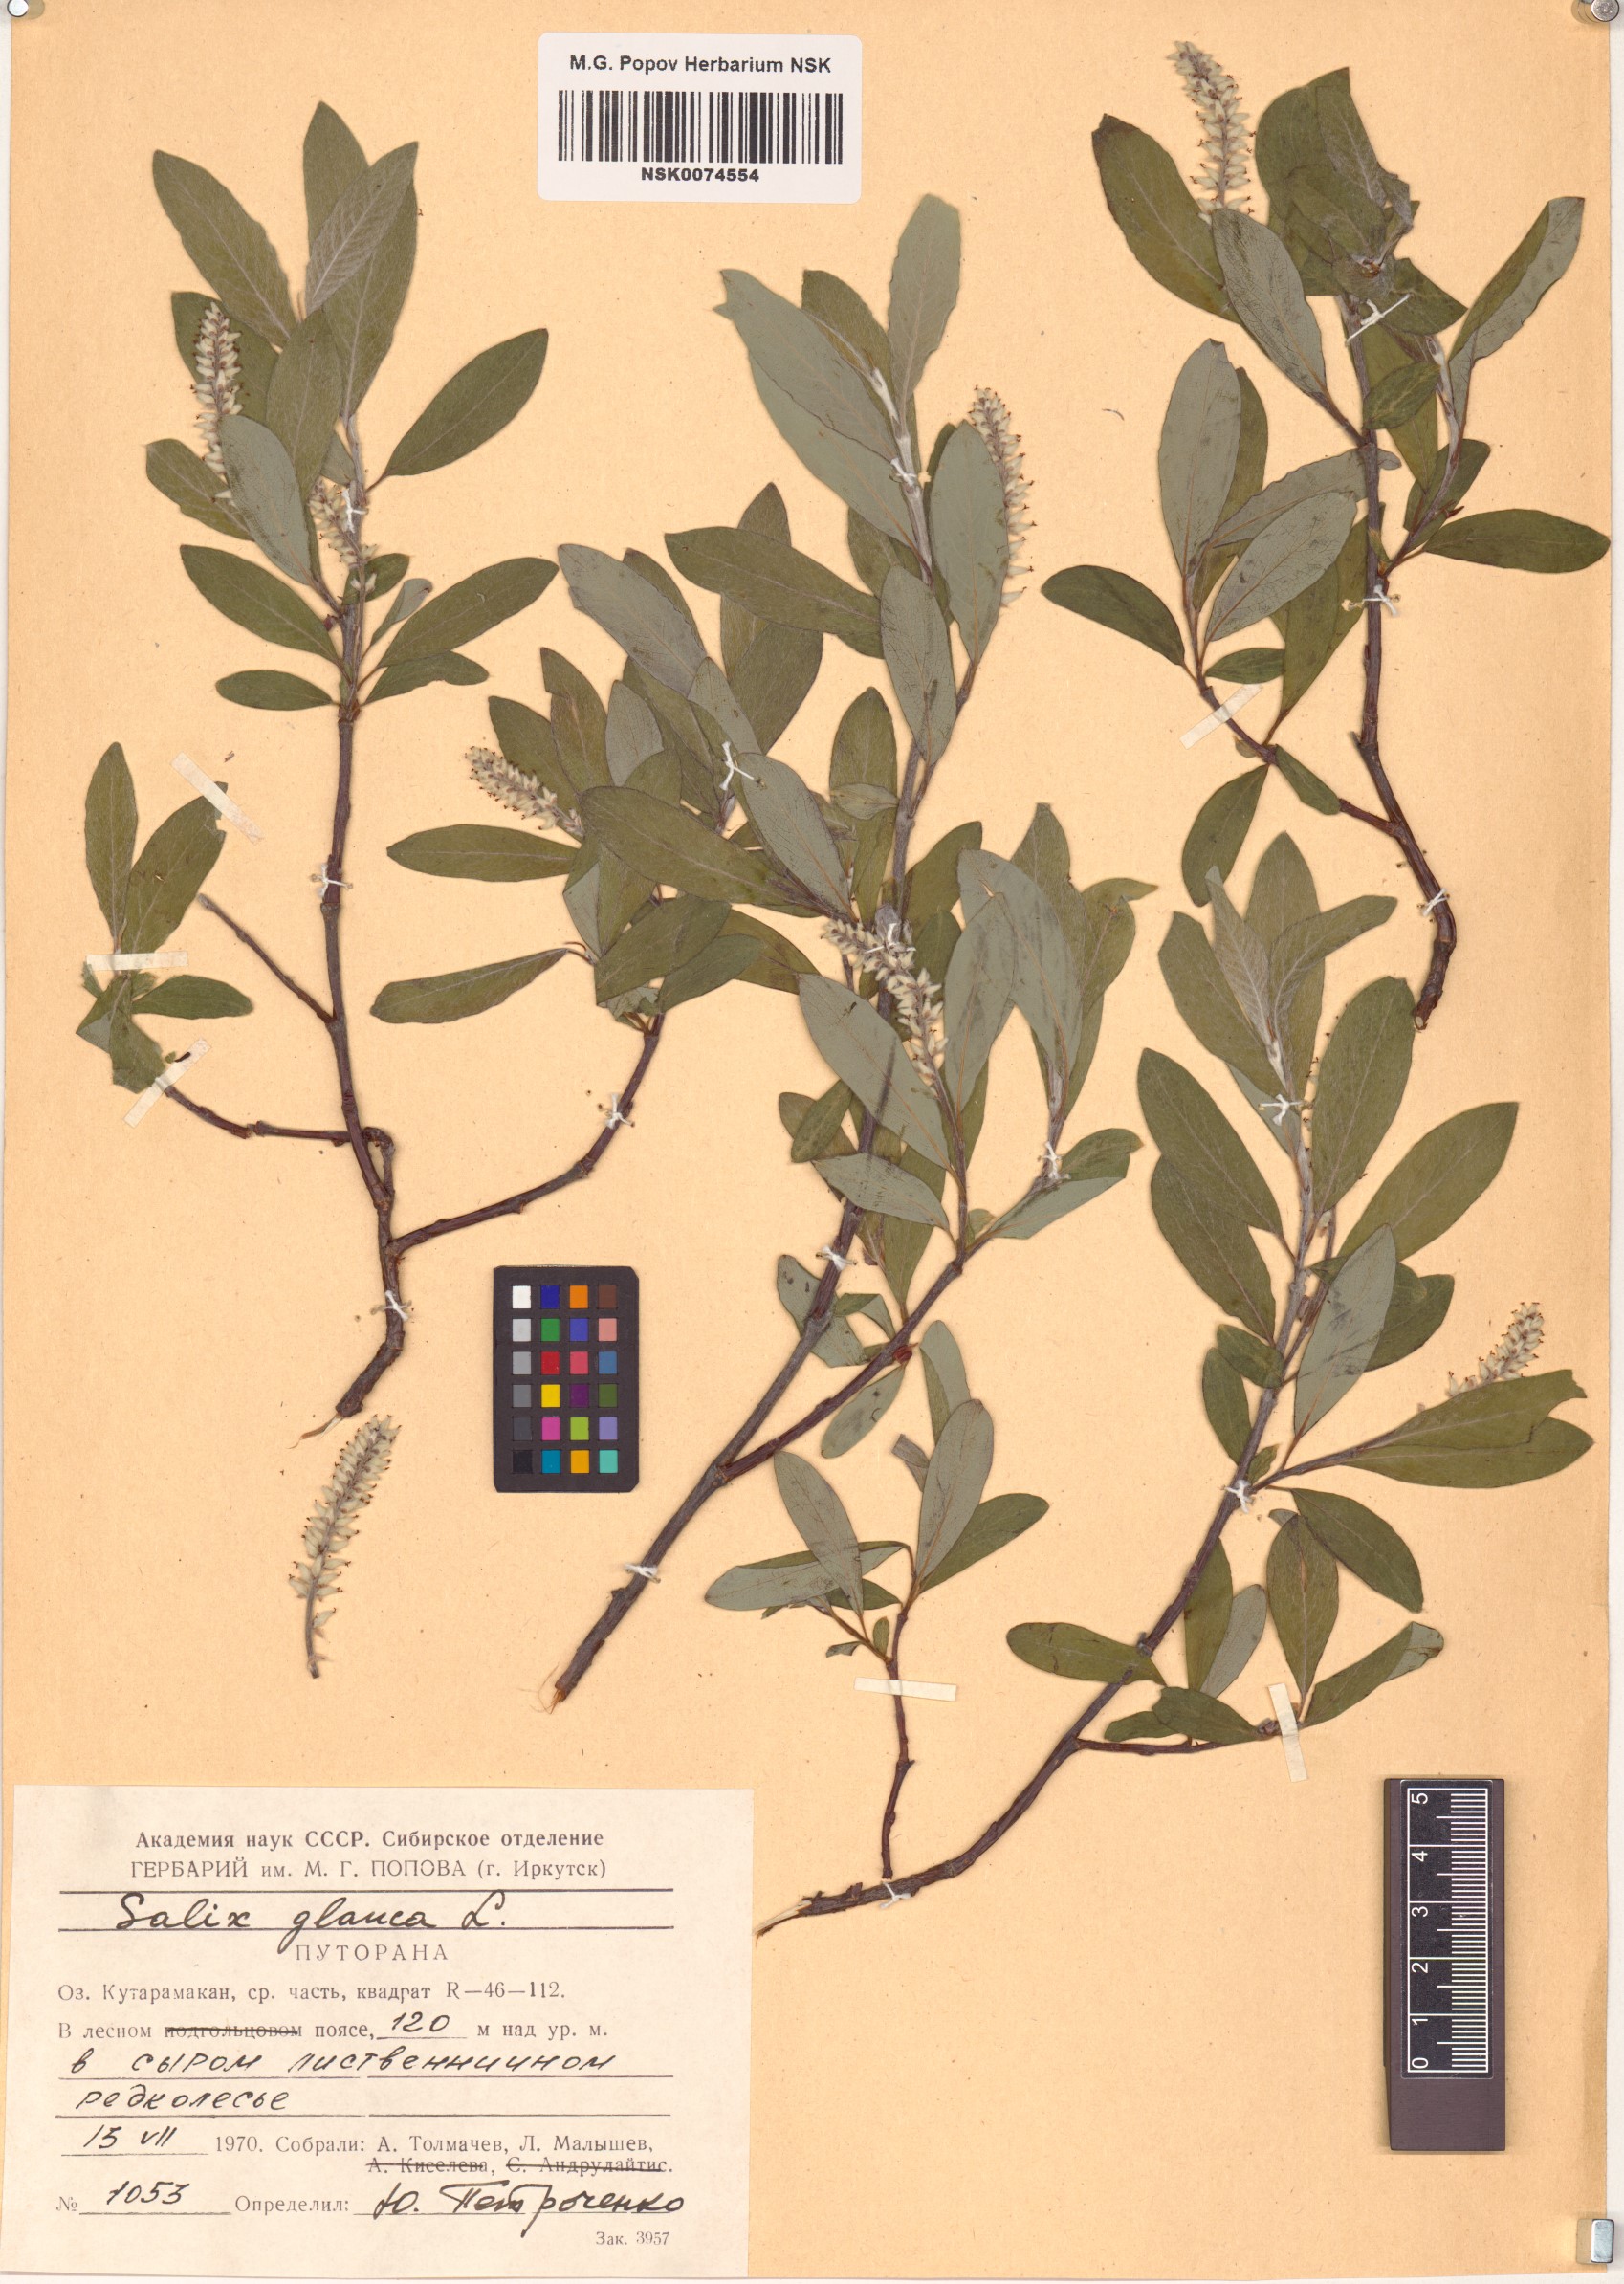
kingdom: Plantae
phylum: Tracheophyta
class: Magnoliopsida
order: Malpighiales
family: Salicaceae
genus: Salix
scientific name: Salix glauca
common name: Glaucous willow
